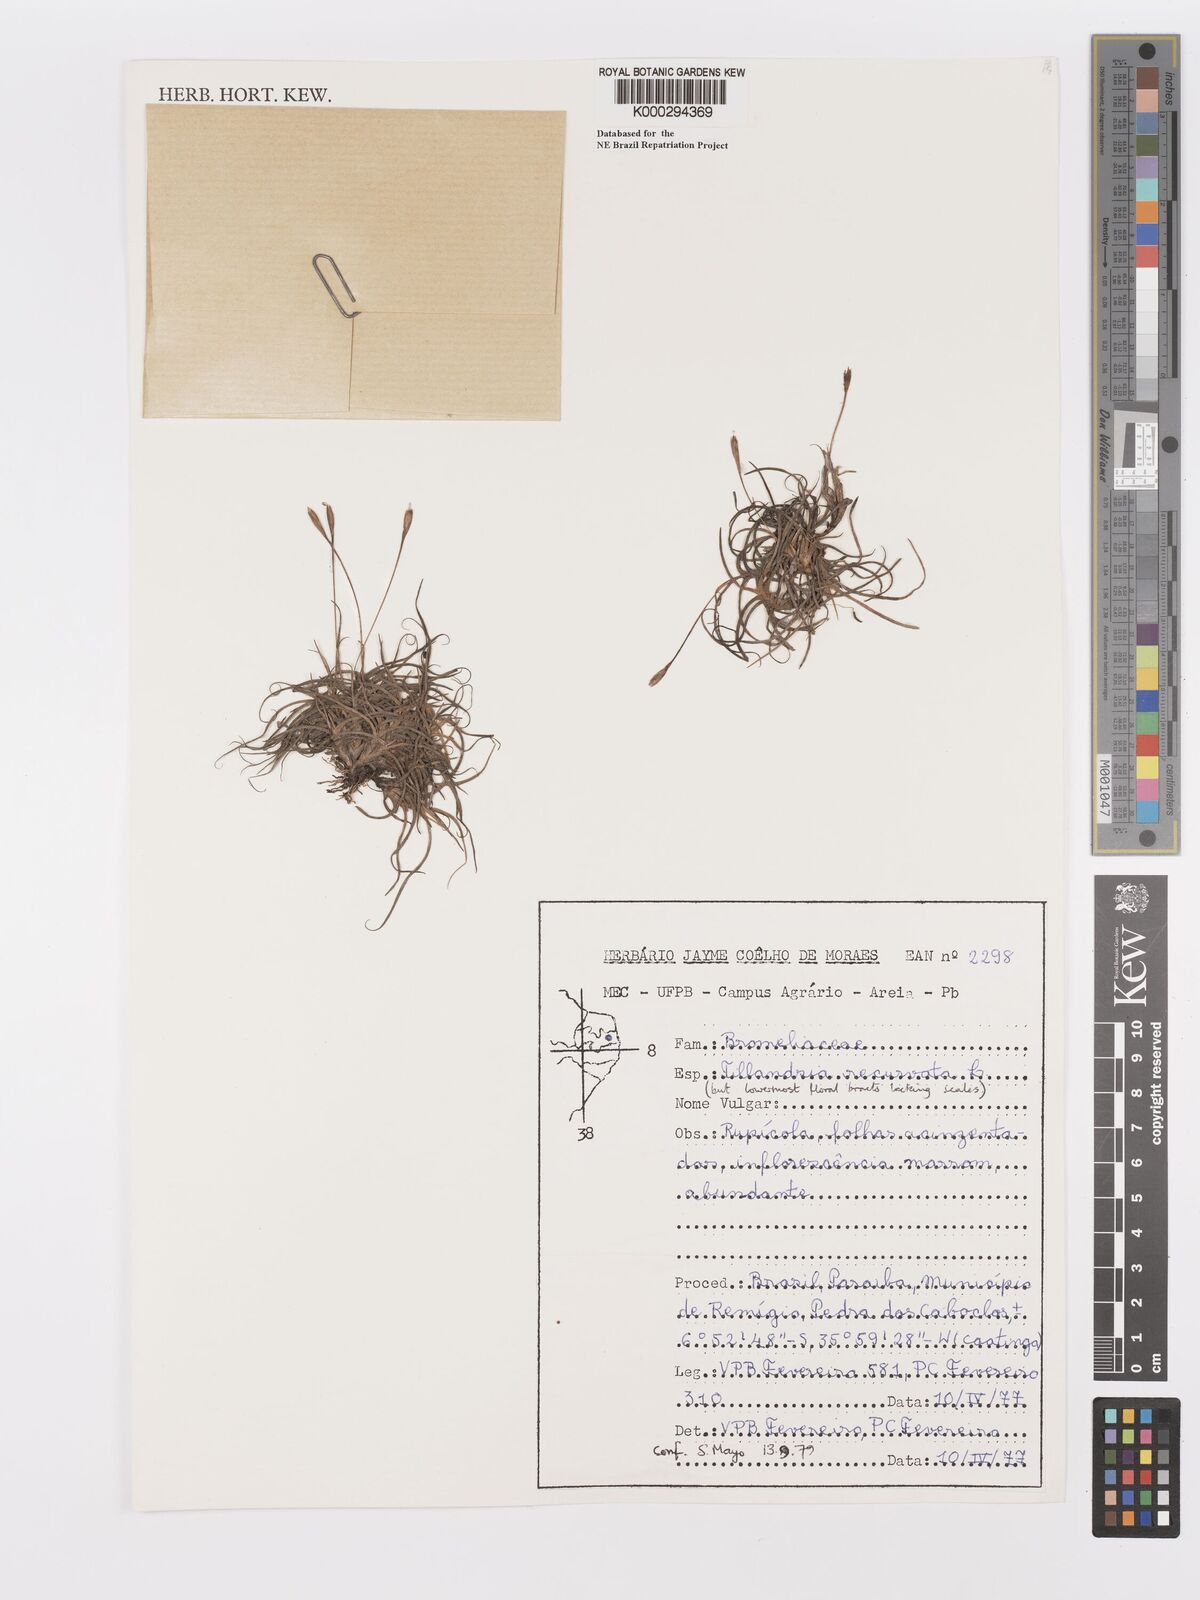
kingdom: Plantae
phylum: Tracheophyta
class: Liliopsida
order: Poales
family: Bromeliaceae
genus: Tillandsia
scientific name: Tillandsia recurvata
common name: Small ballmoss
